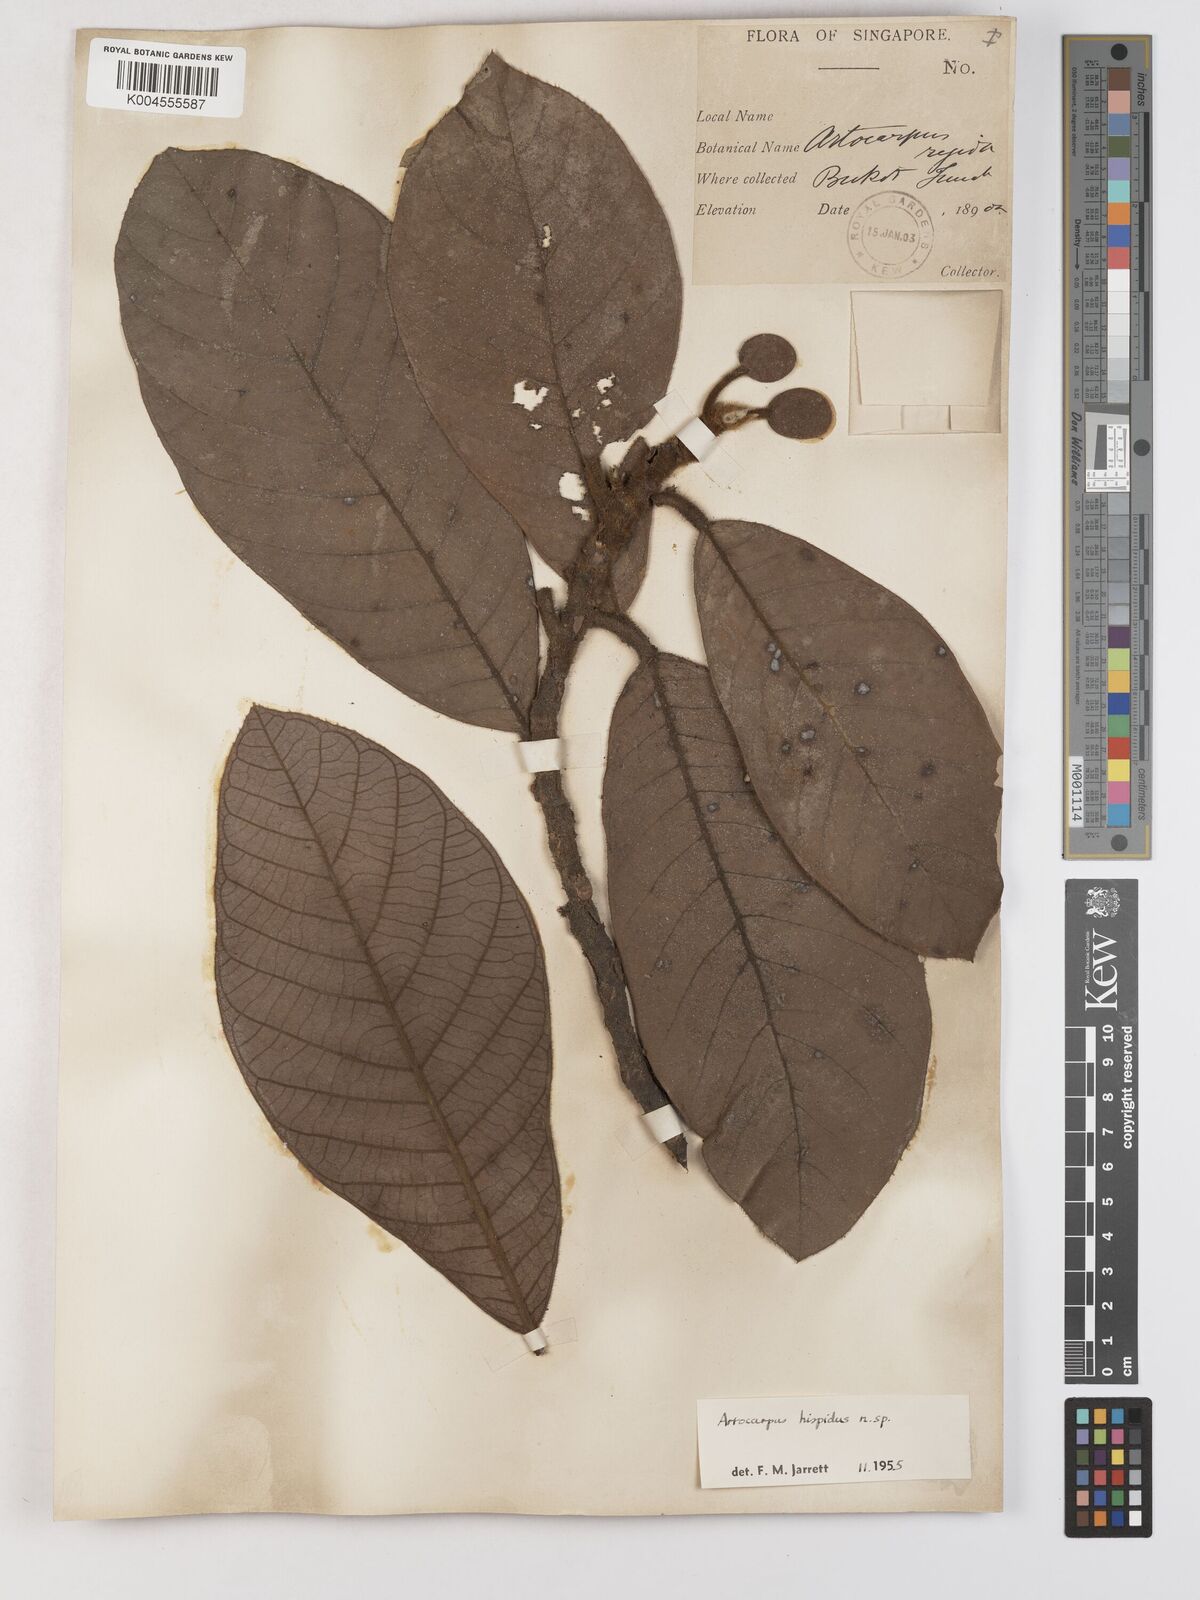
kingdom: Plantae
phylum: Tracheophyta
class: Magnoliopsida
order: Rosales
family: Moraceae
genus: Artocarpus
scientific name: Artocarpus hispidus
